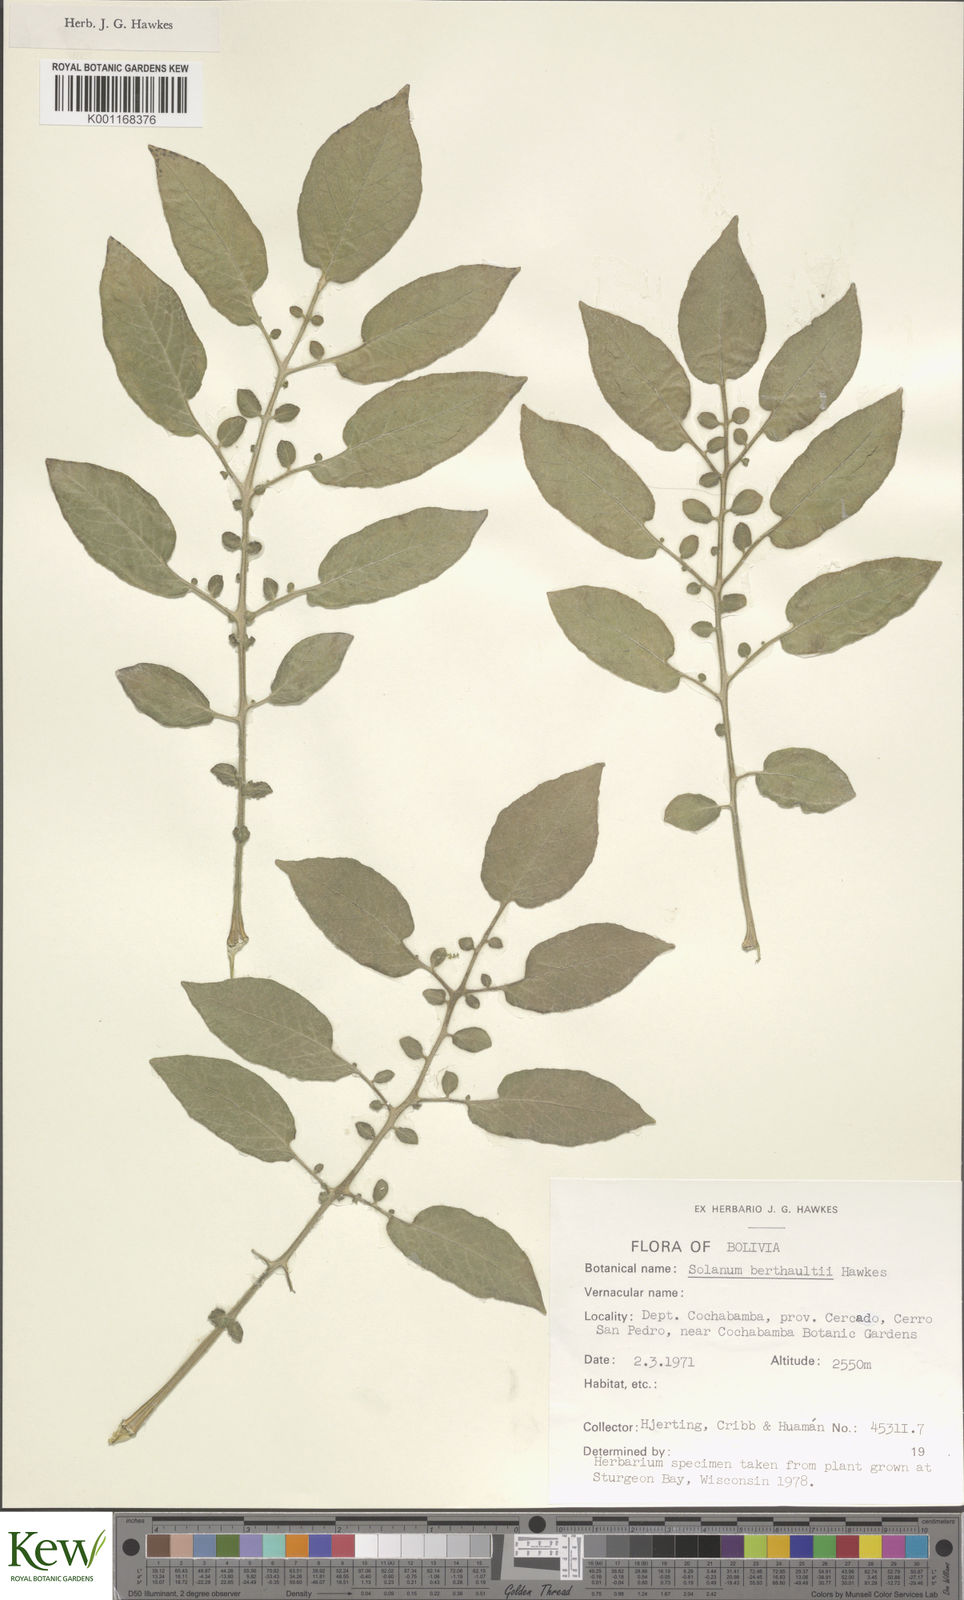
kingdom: Plantae
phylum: Tracheophyta
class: Magnoliopsida
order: Solanales
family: Solanaceae
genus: Solanum
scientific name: Solanum berthaultii
